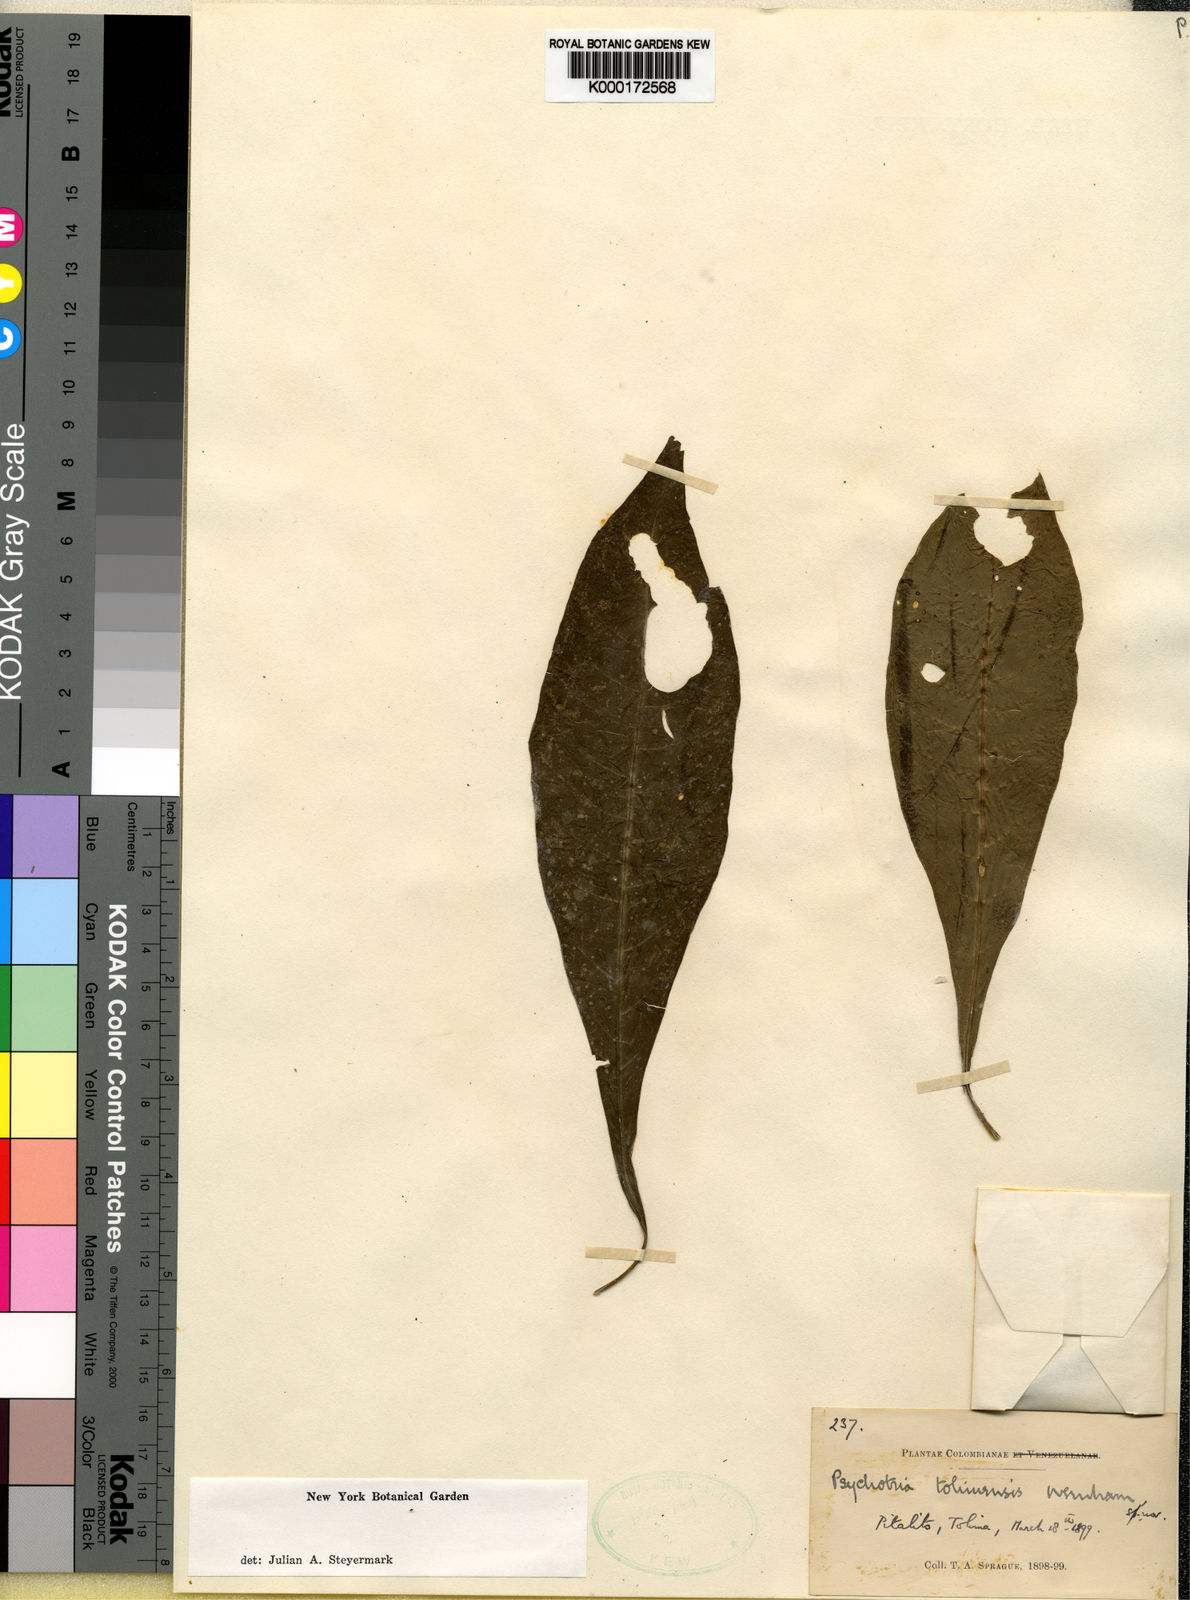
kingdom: Plantae
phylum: Tracheophyta
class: Magnoliopsida
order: Gentianales
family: Rubiaceae
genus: Notopleura
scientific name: Notopleura tolimensis
